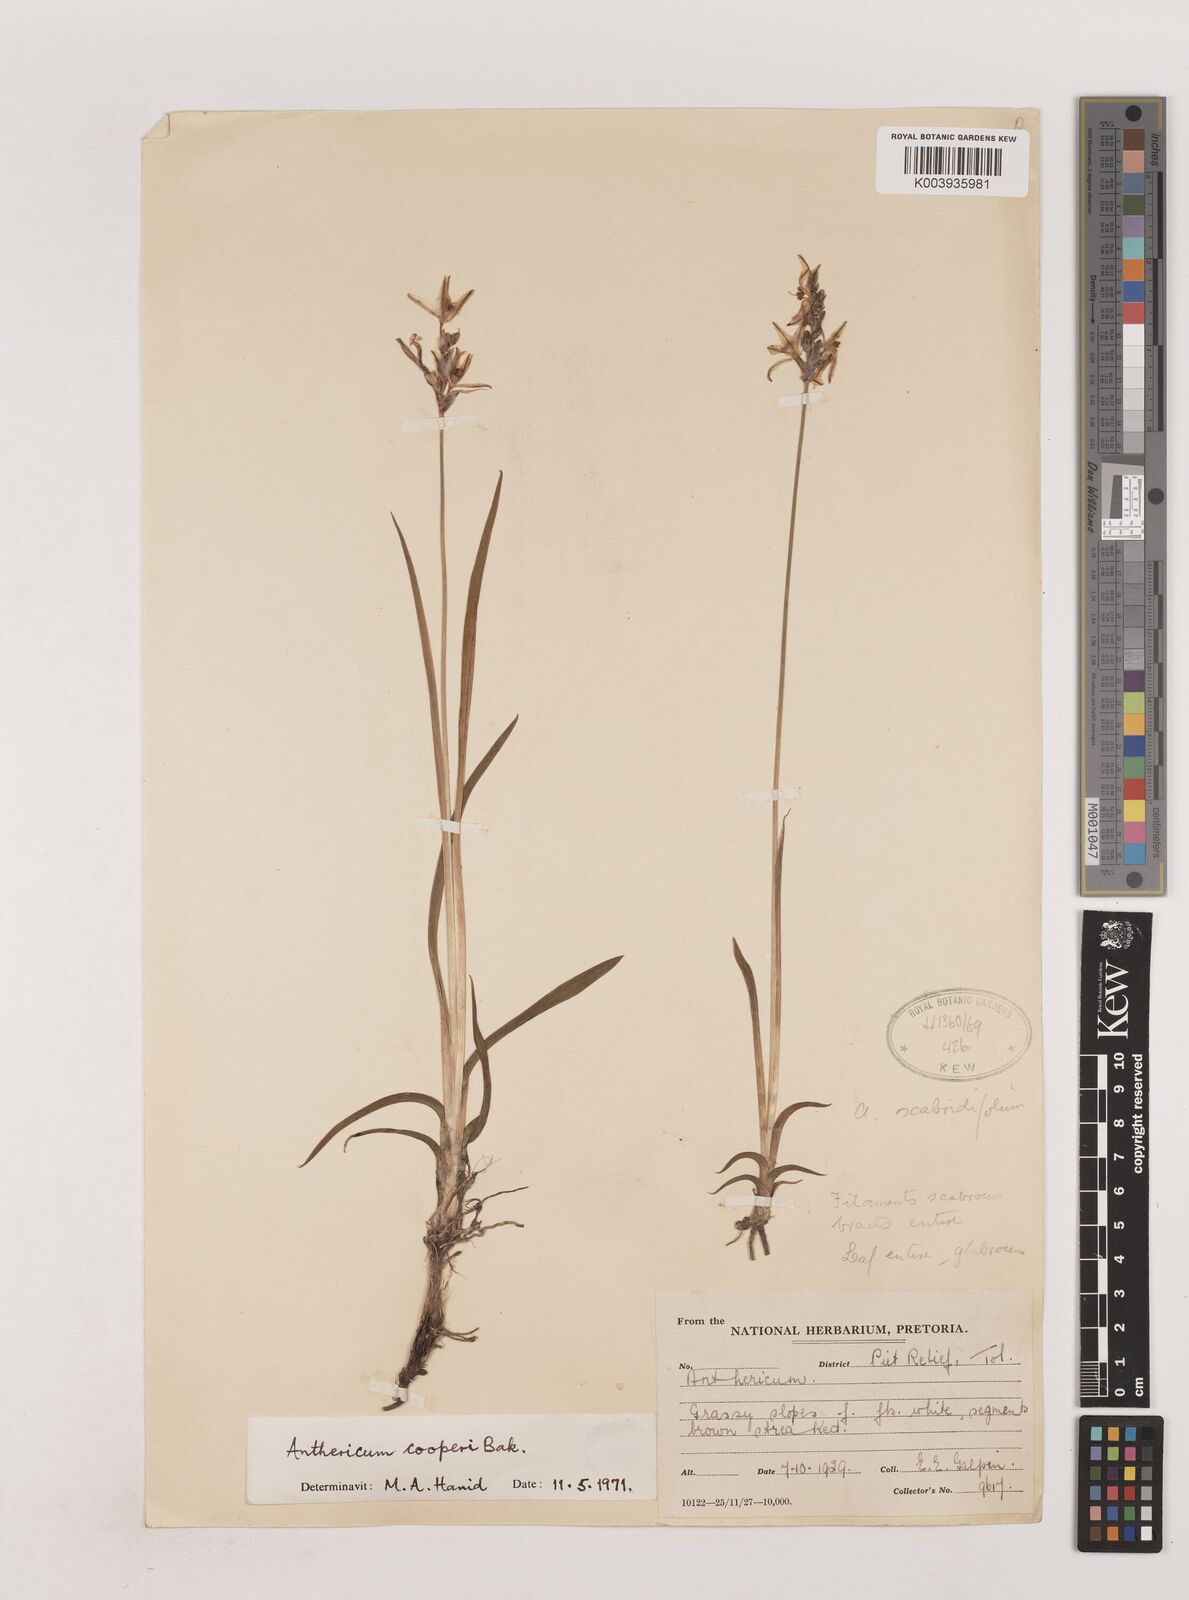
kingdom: Plantae
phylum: Tracheophyta
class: Liliopsida
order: Asparagales
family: Asparagaceae
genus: Chlorophytum
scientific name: Chlorophytum cooperi
